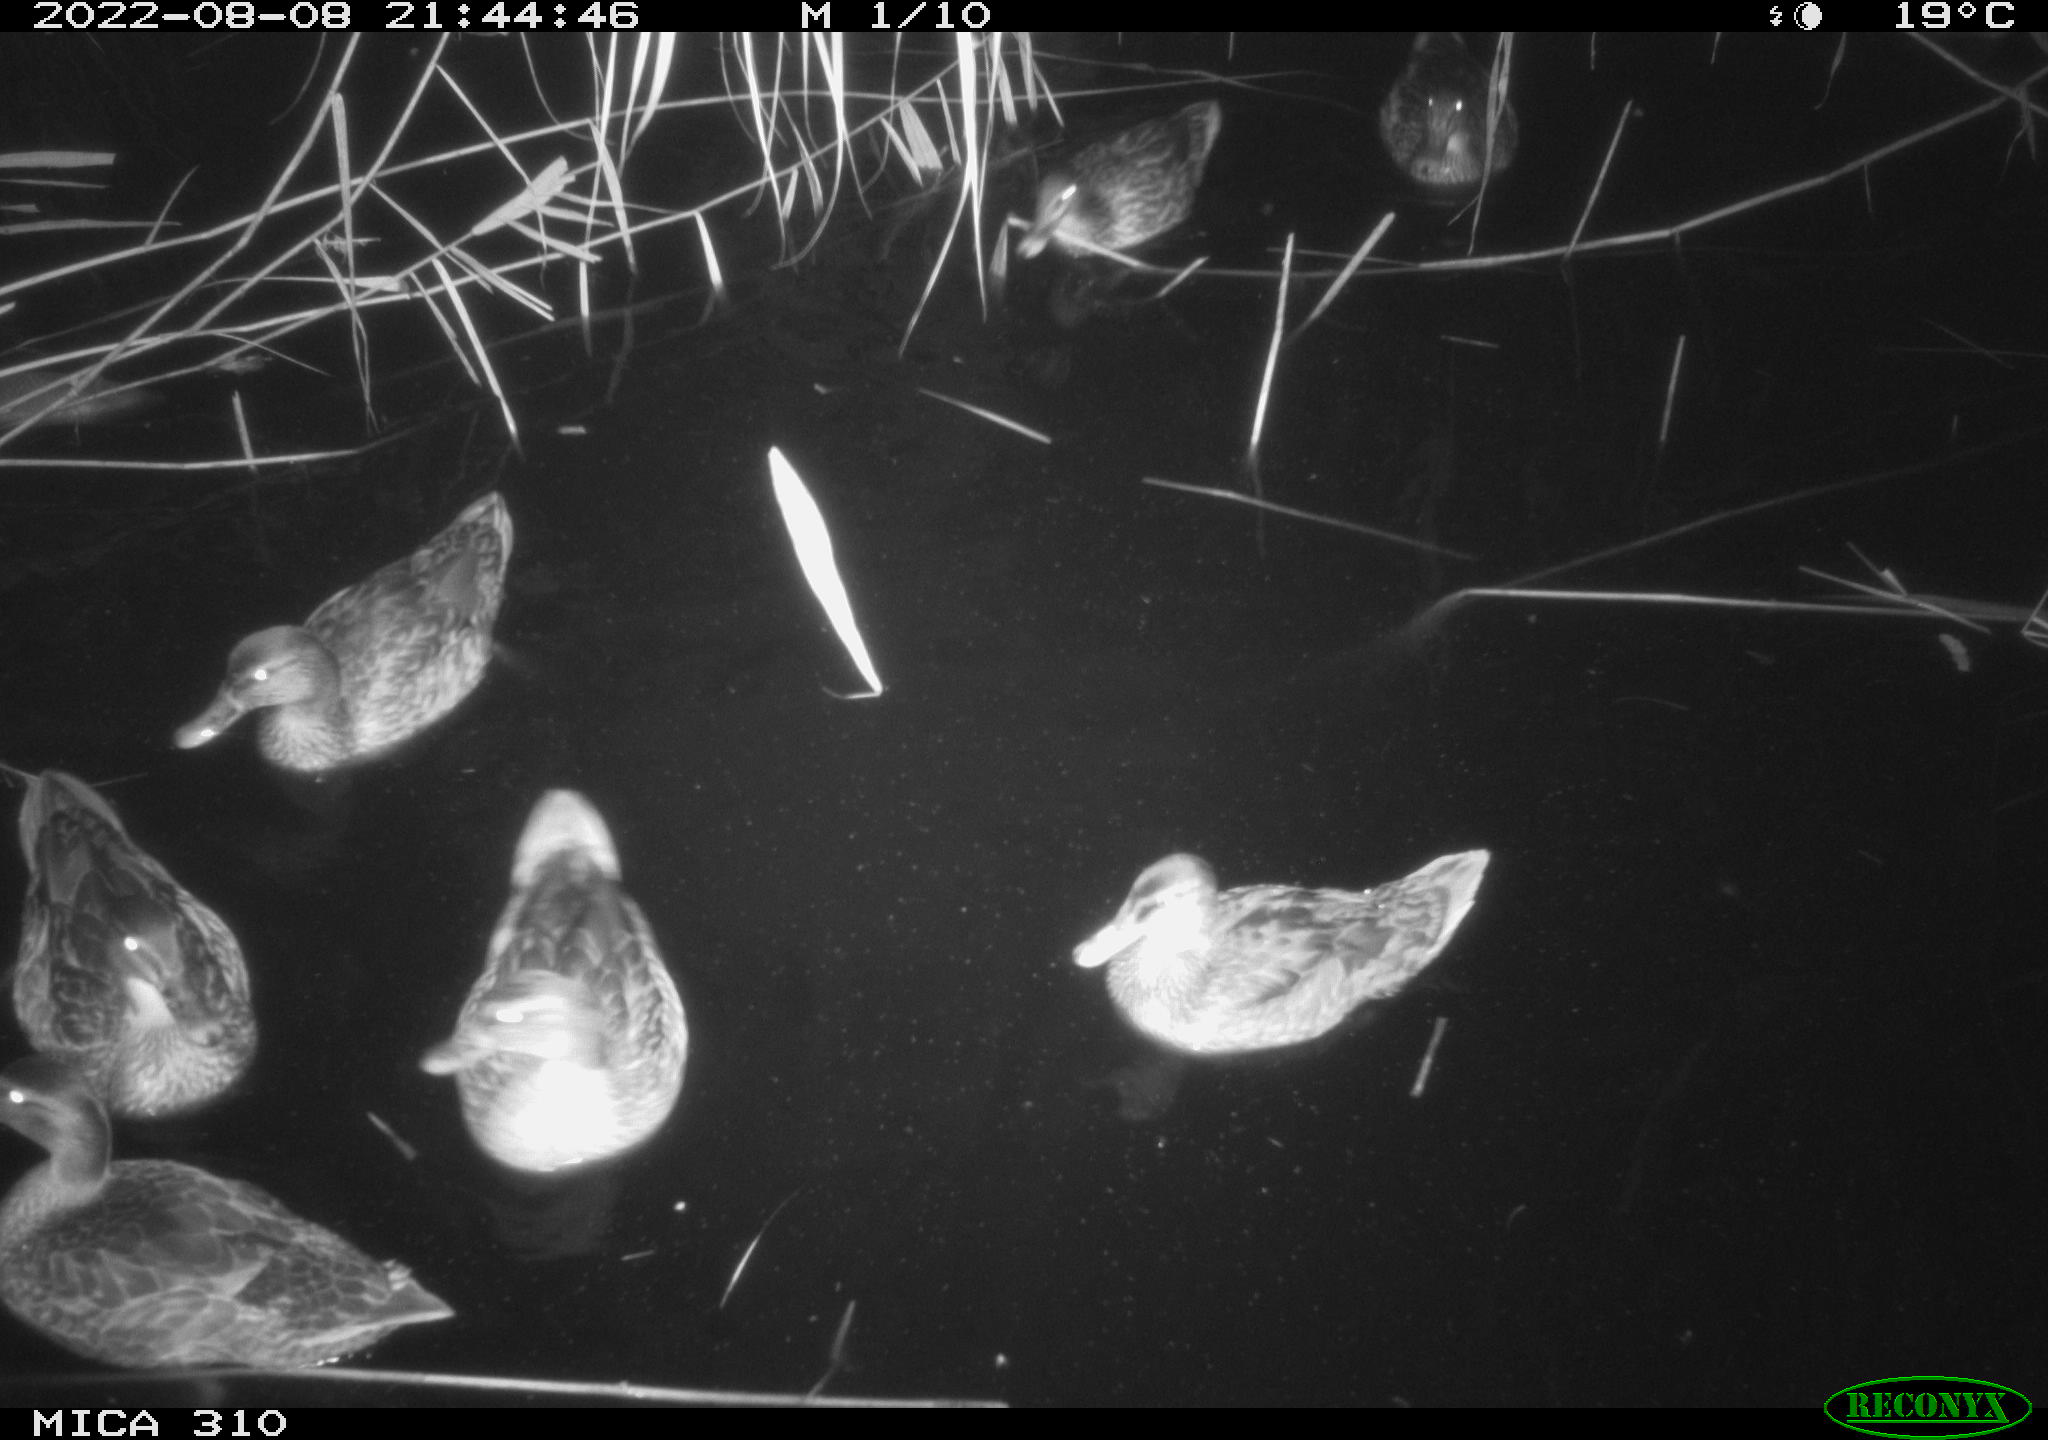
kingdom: Animalia
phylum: Chordata
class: Aves
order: Anseriformes
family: Anatidae
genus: Anas
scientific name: Anas platyrhynchos
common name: Mallard
